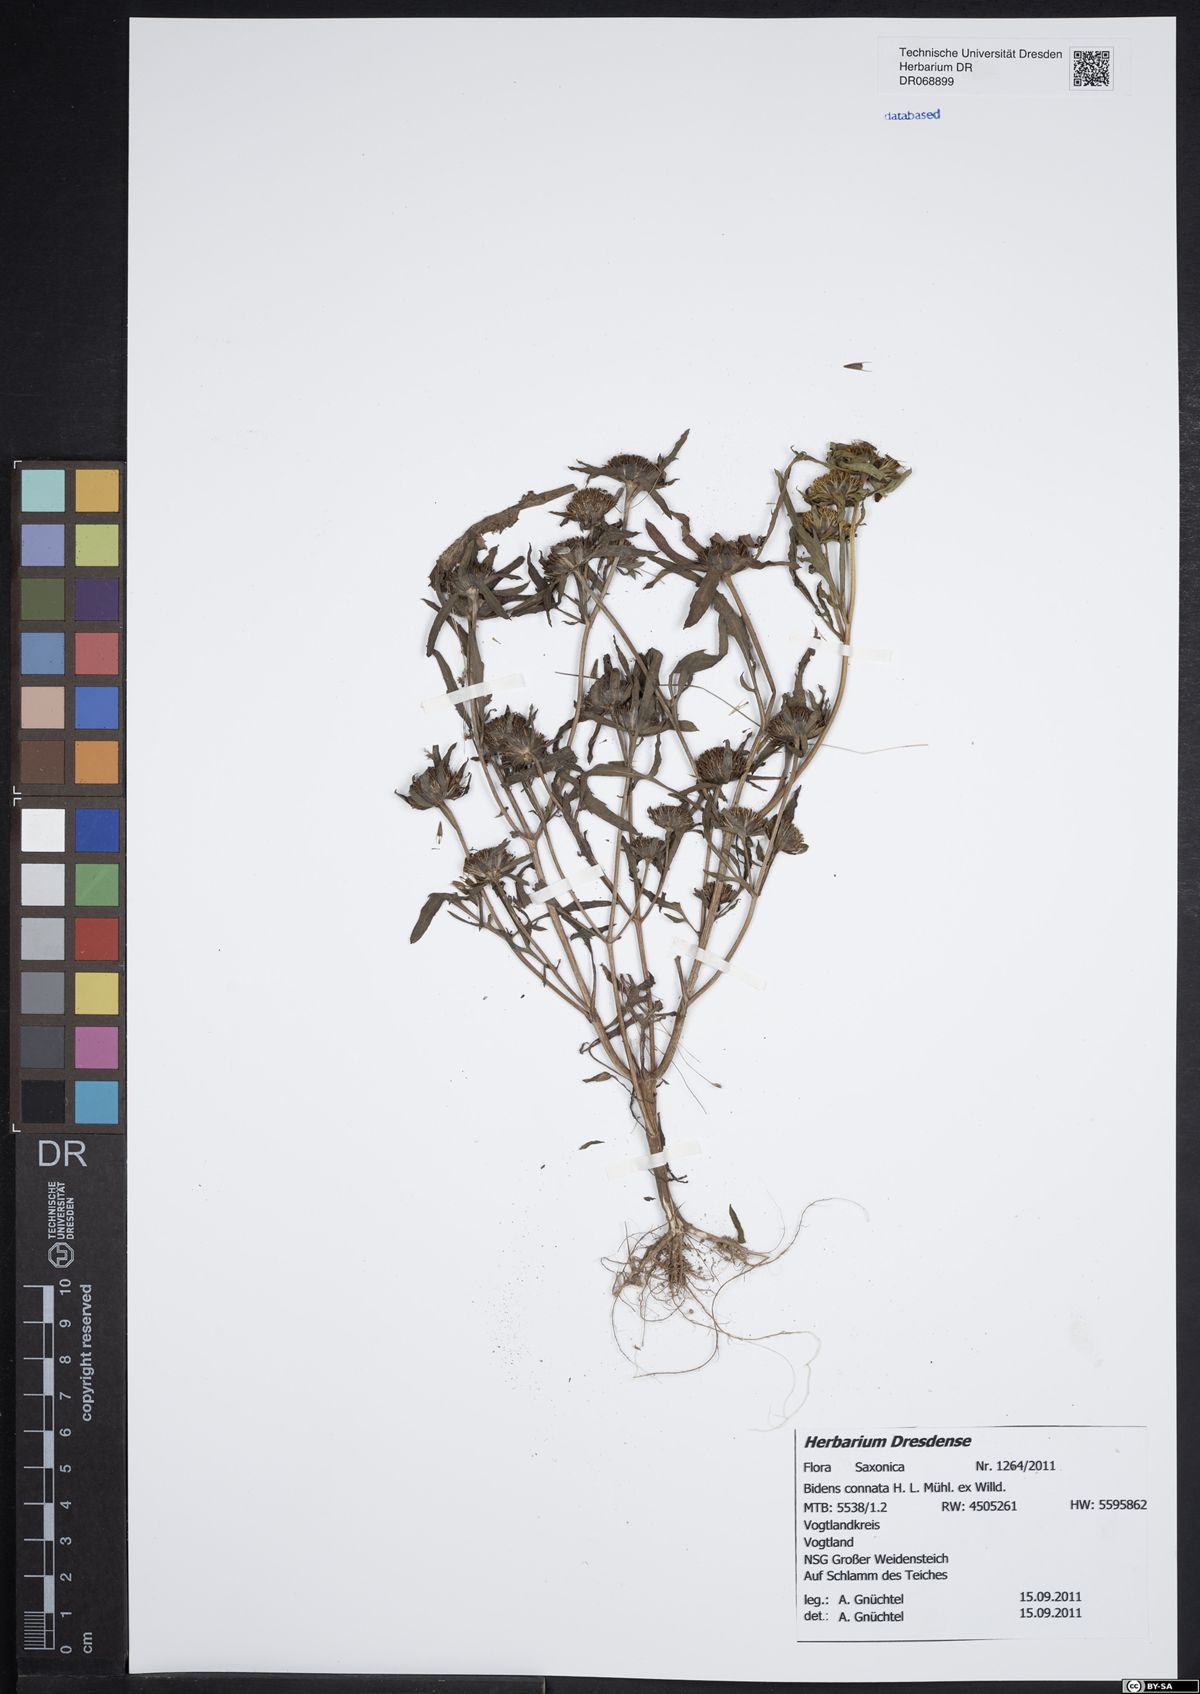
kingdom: Plantae
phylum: Tracheophyta
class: Magnoliopsida
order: Asterales
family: Asteraceae
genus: Bidens
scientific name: Bidens connata
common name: London bur-marigold
